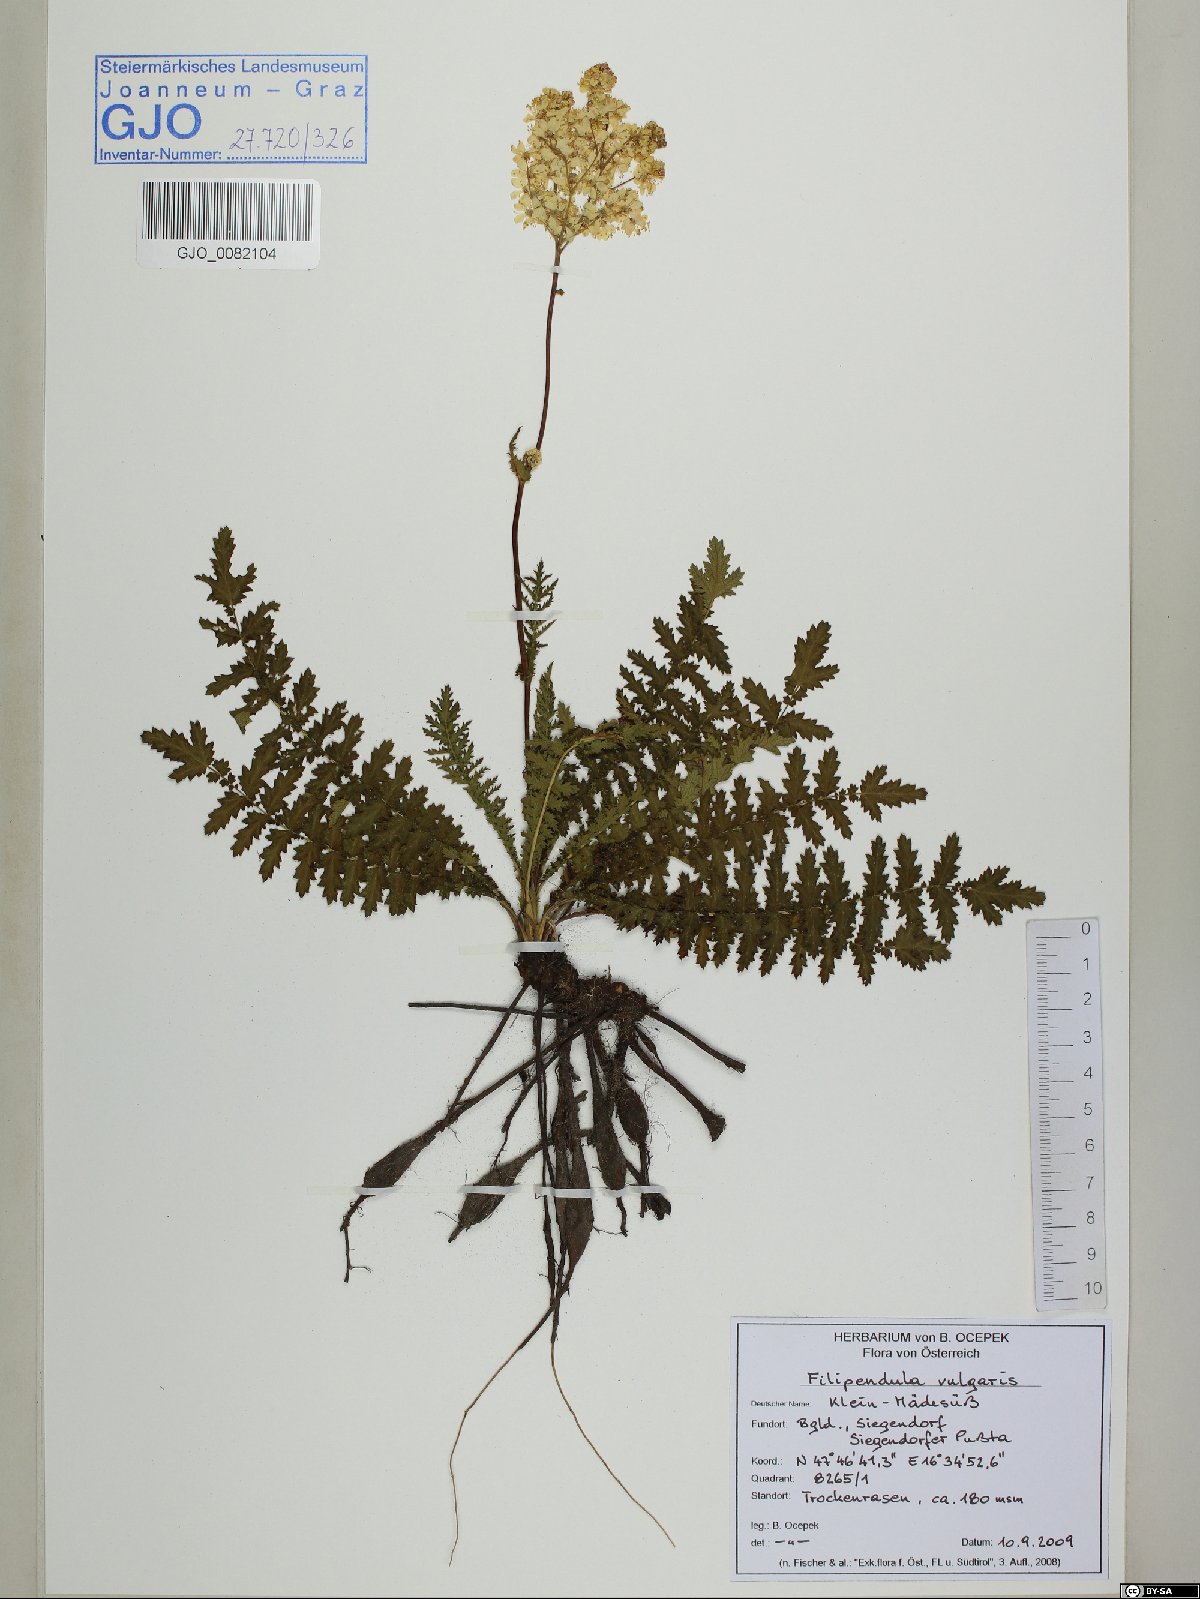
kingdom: Plantae
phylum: Tracheophyta
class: Magnoliopsida
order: Rosales
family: Rosaceae
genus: Filipendula
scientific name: Filipendula vulgaris
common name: Dropwort
